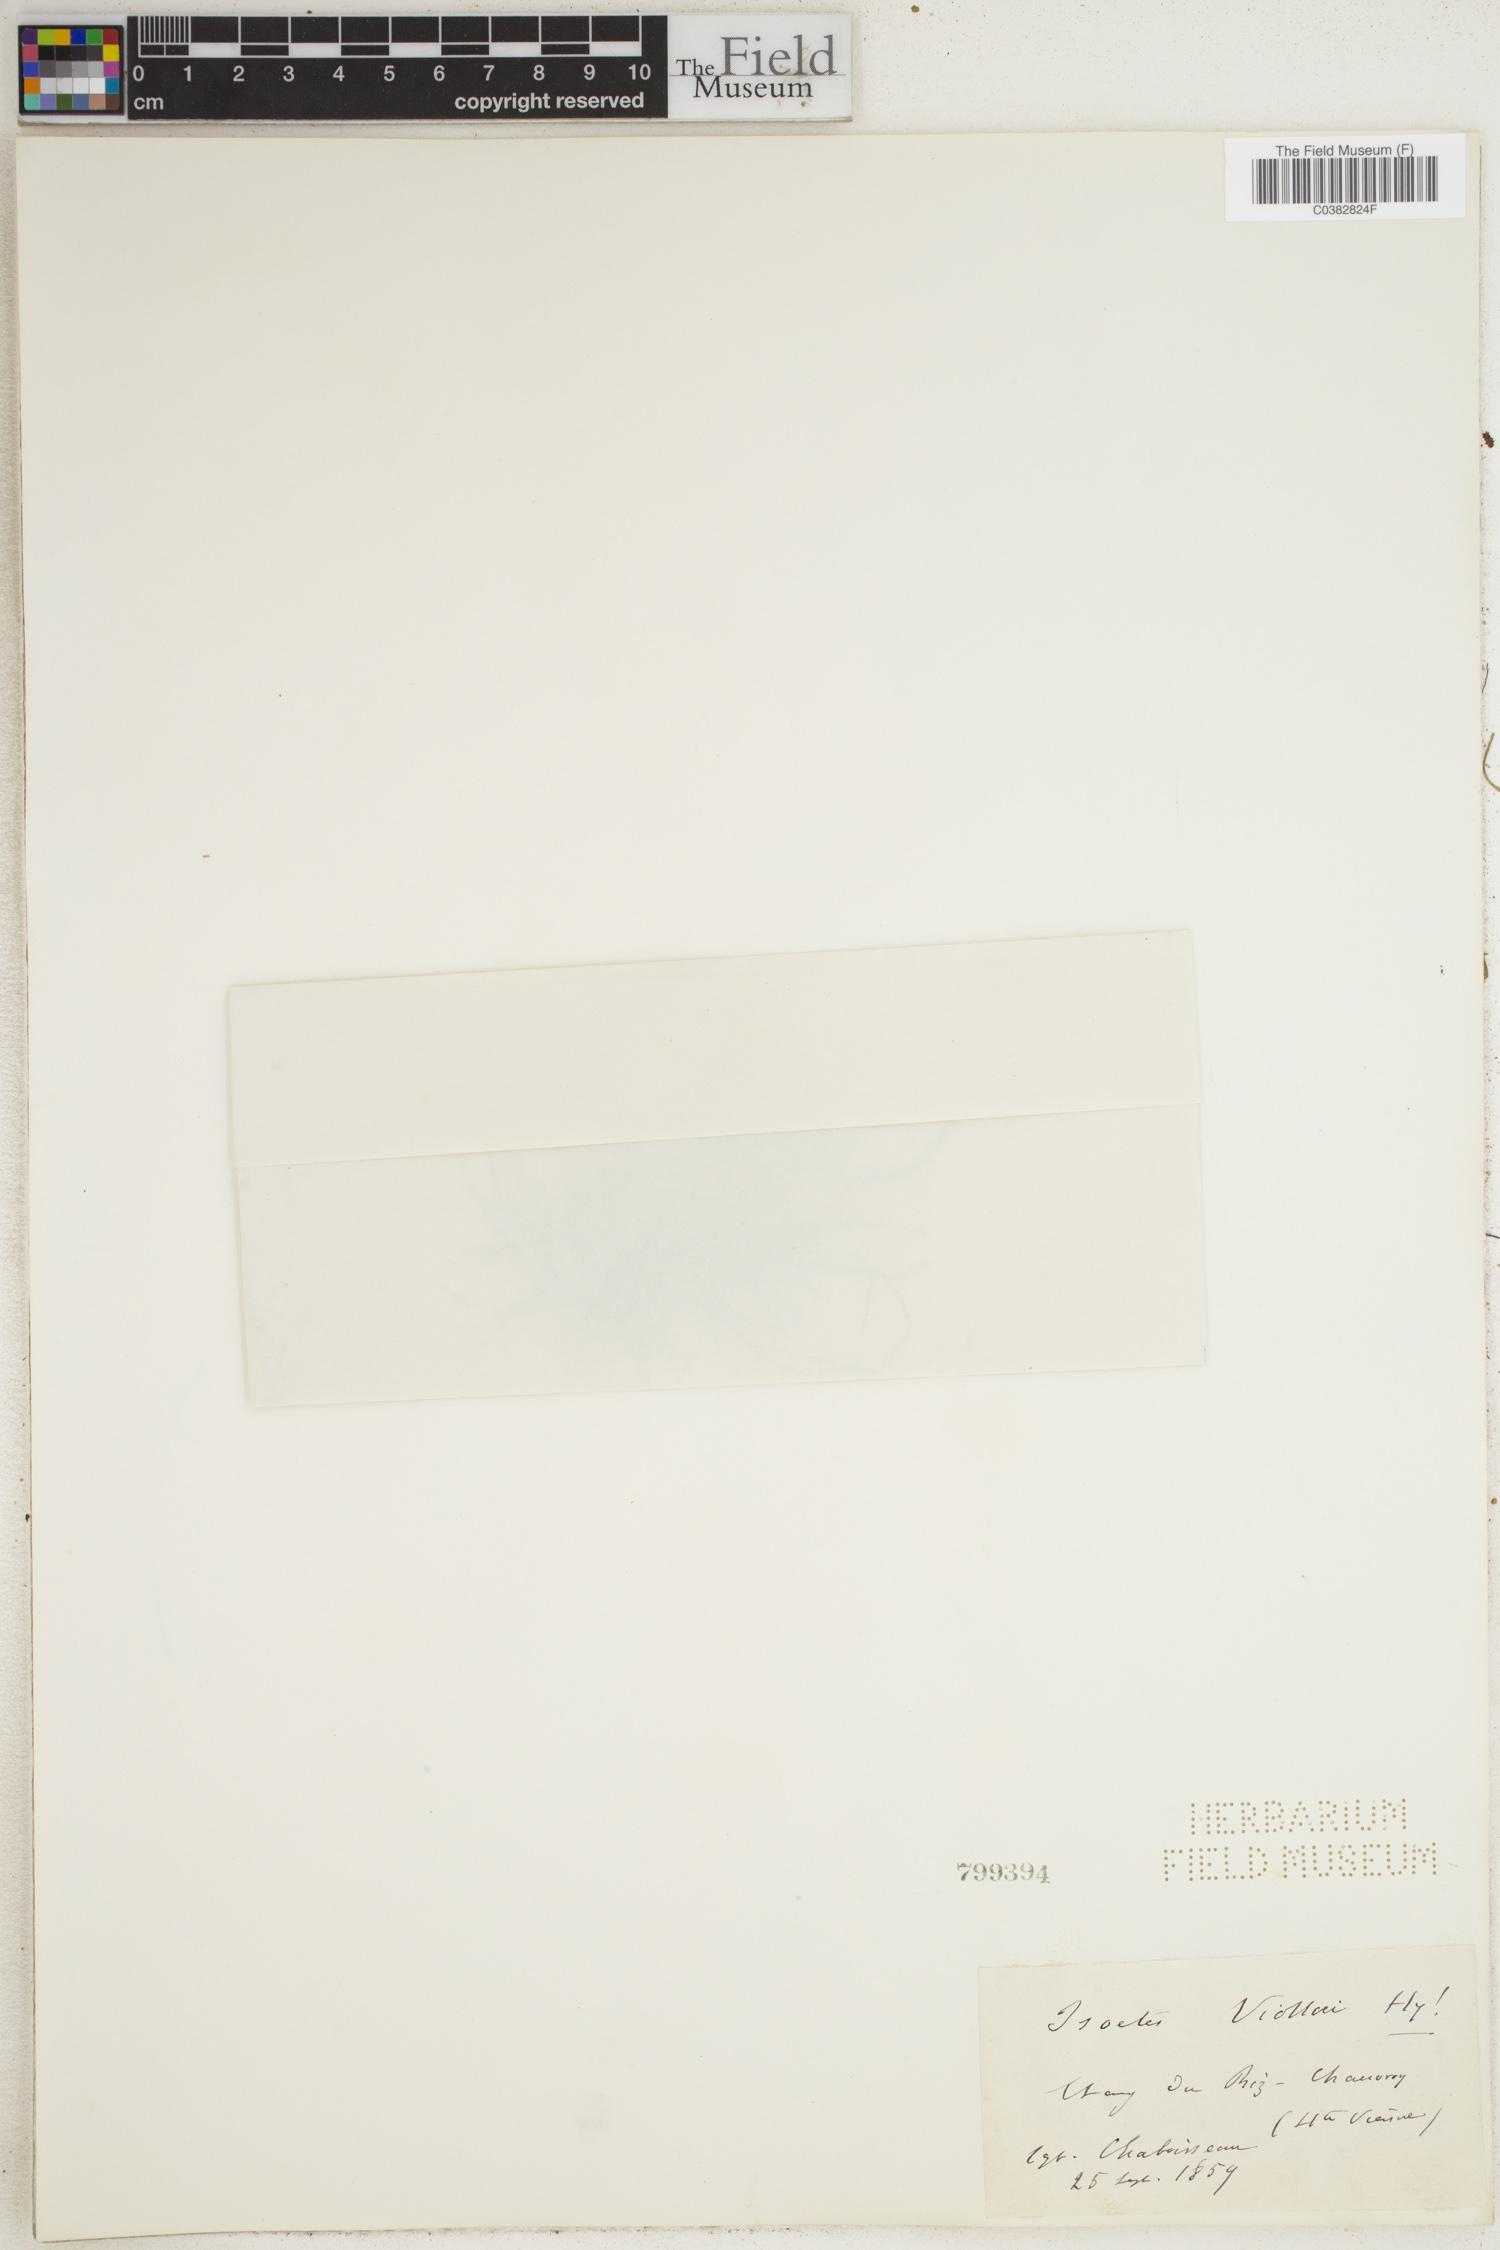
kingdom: Plantae
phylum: Tracheophyta
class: Lycopodiopsida
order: Isoetales
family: Isoetaceae
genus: Isoetes
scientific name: Isoetes
